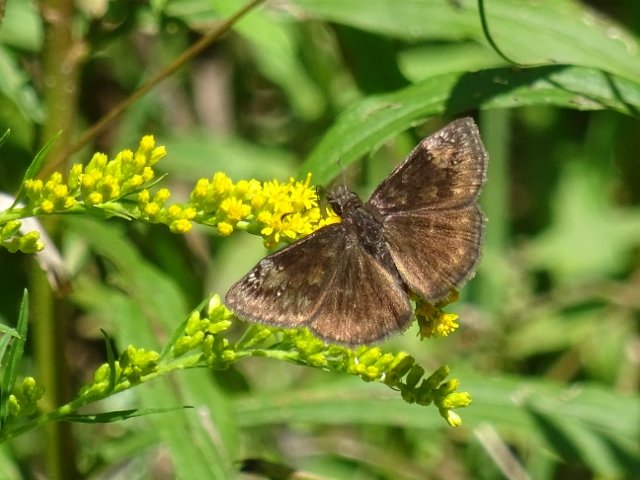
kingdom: Animalia
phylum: Arthropoda
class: Insecta
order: Lepidoptera
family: Hesperiidae
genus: Gesta
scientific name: Gesta
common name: Wild Indigo Duskywing
